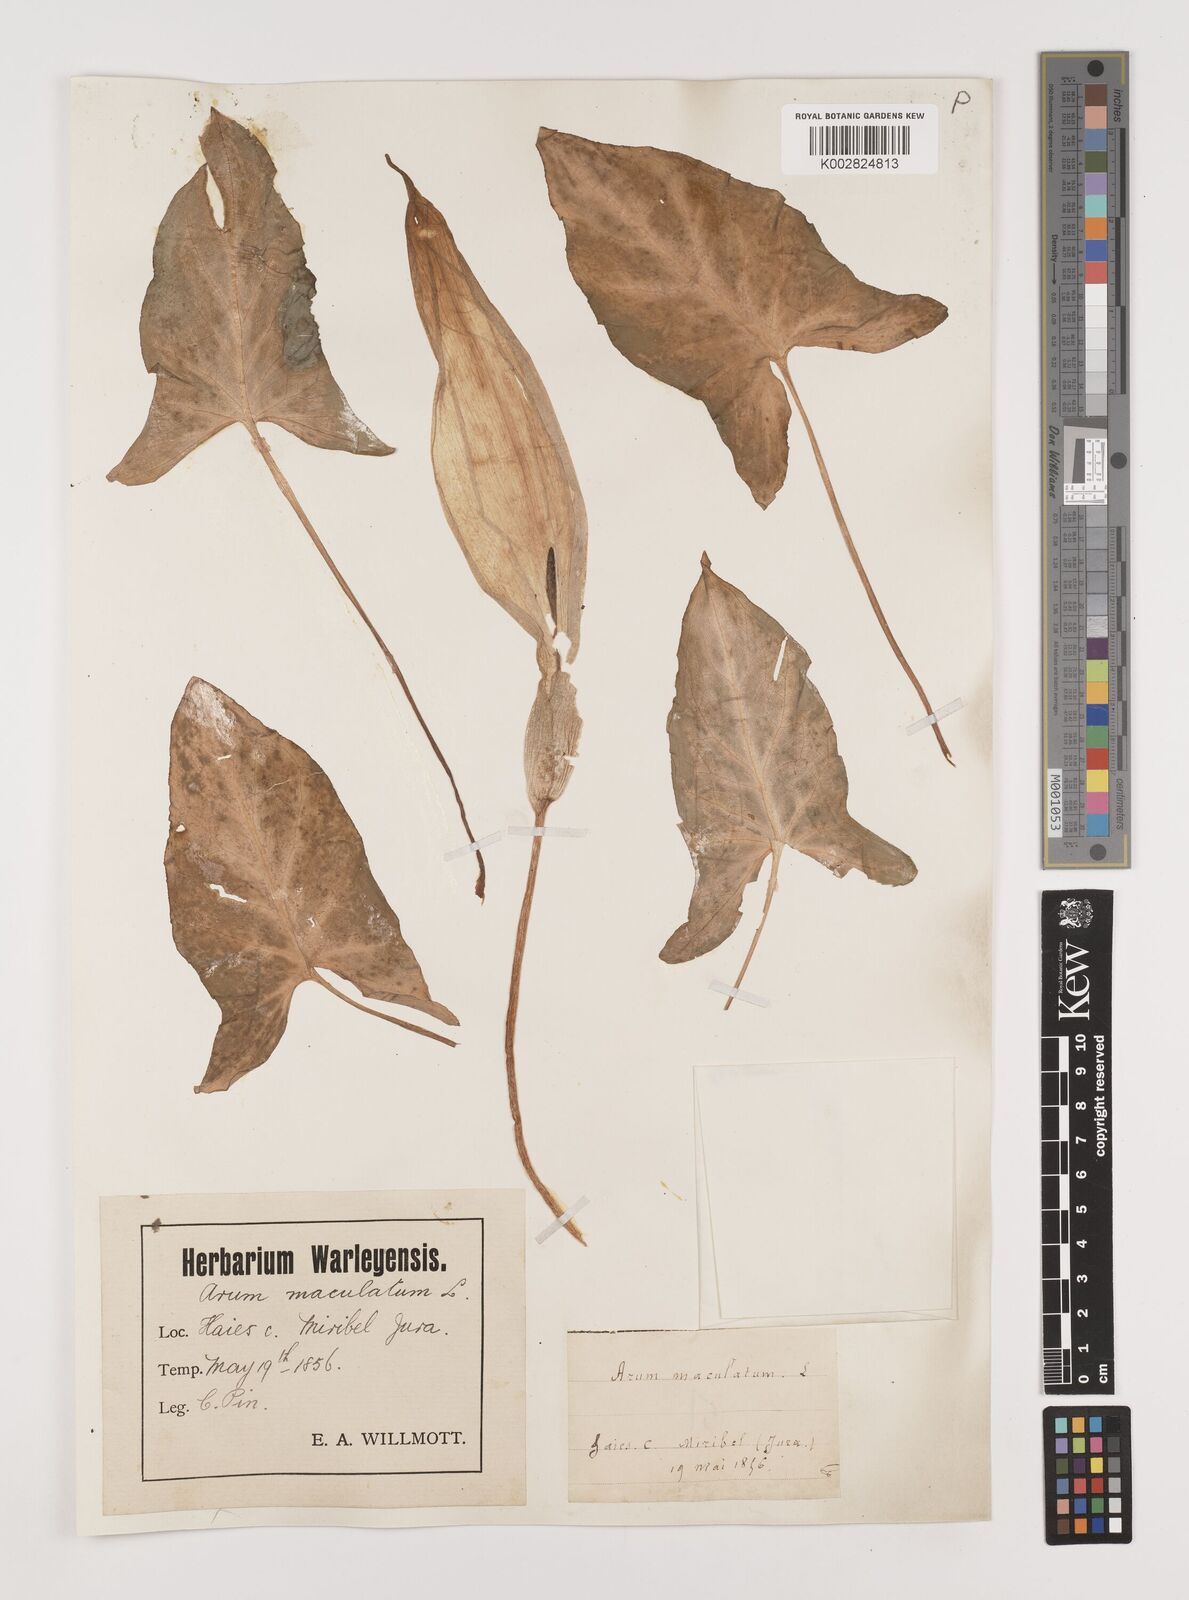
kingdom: Plantae
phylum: Tracheophyta
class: Liliopsida
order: Alismatales
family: Araceae
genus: Arum
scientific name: Arum maculatum
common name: Lords-and-ladies
